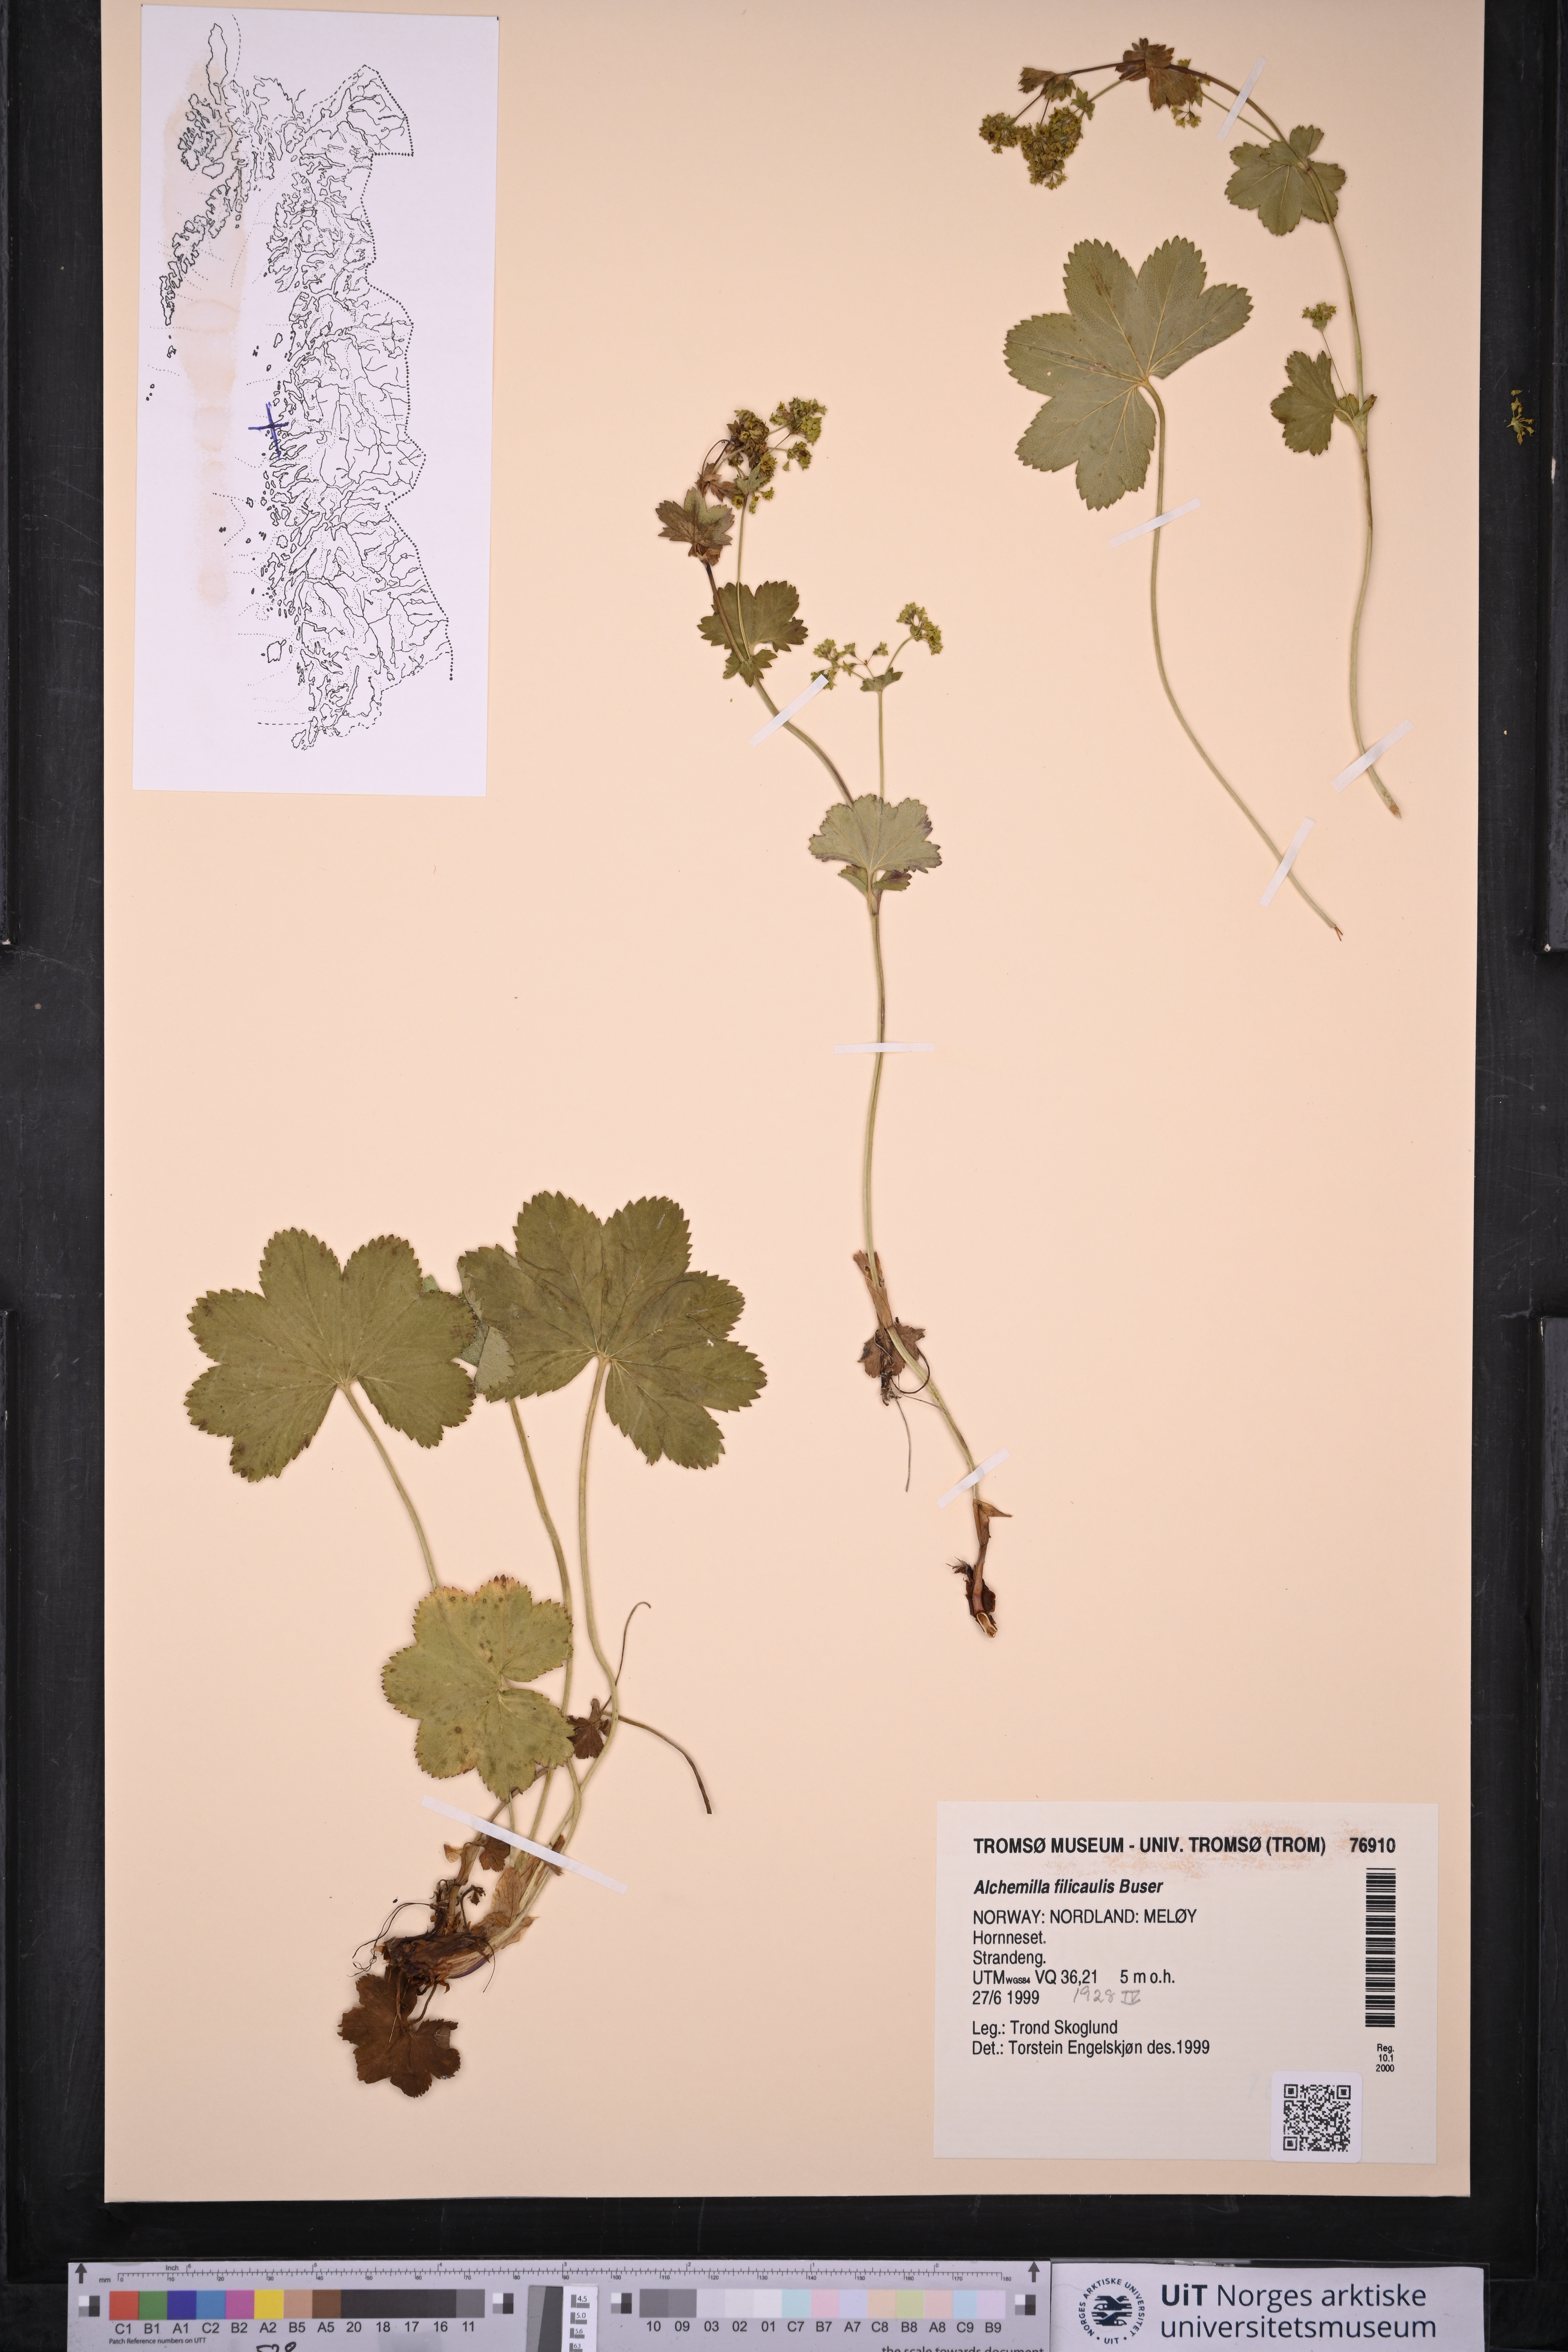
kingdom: Plantae
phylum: Tracheophyta
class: Magnoliopsida
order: Rosales
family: Rosaceae
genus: Alchemilla
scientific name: Alchemilla filicaulis
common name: Hairy lady's-mantle
